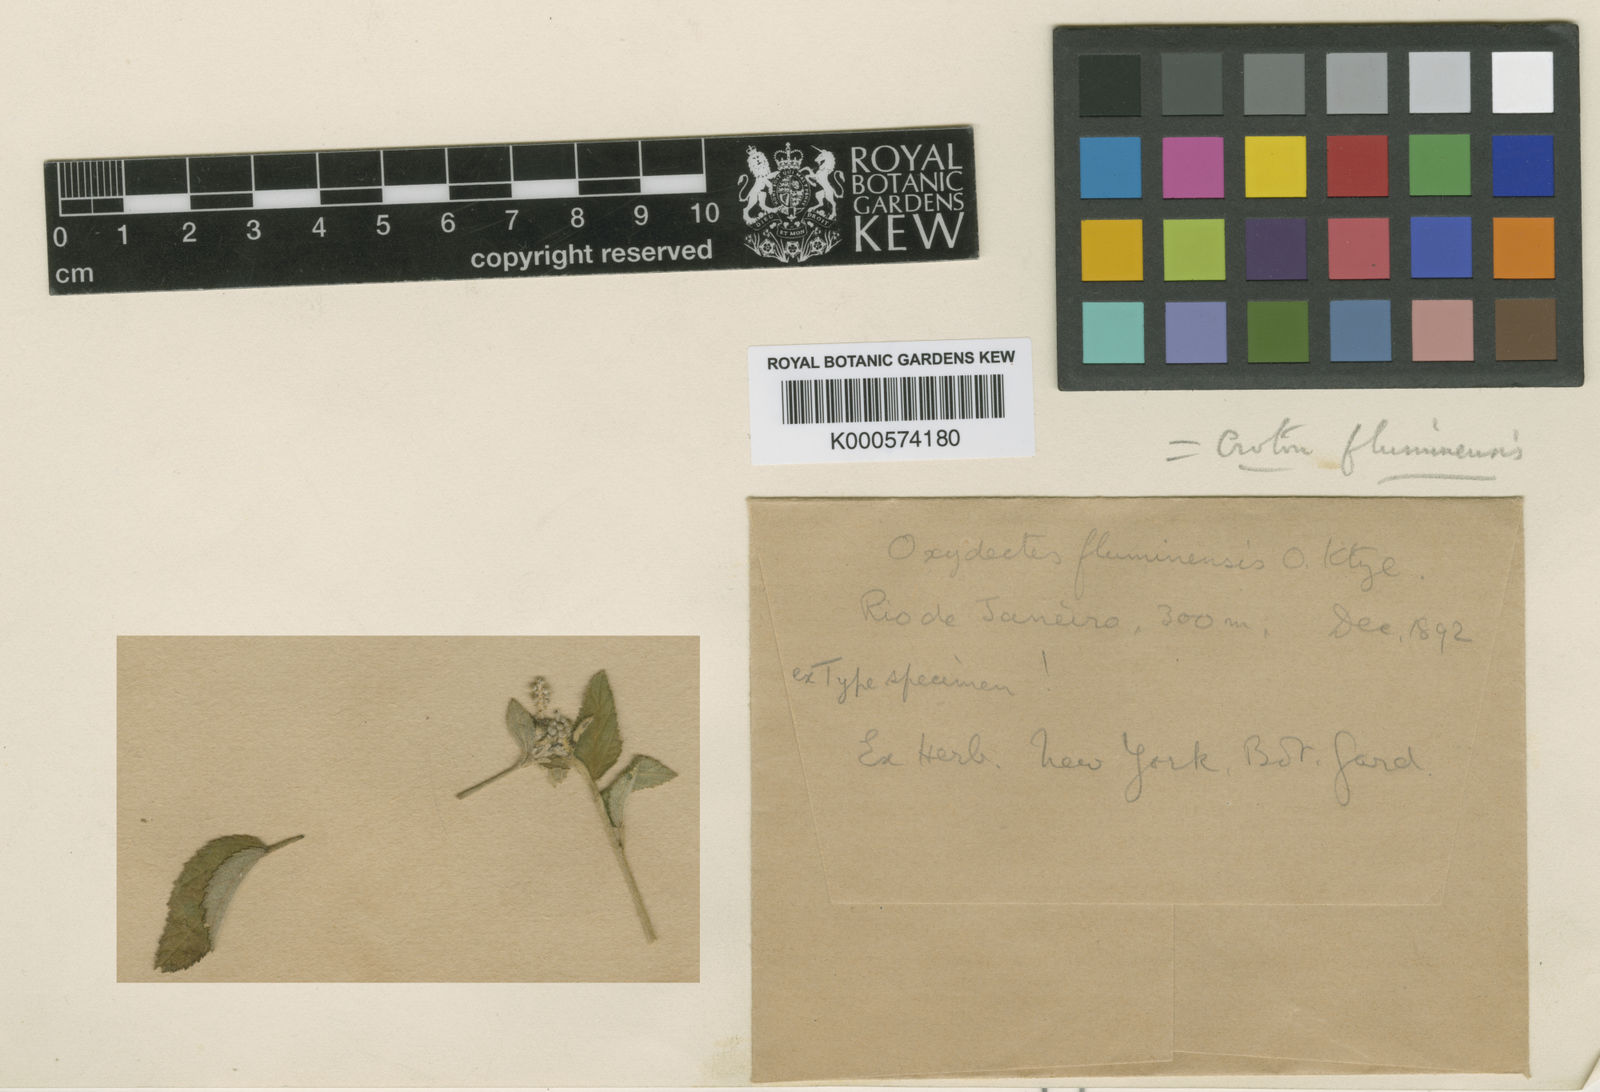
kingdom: Plantae
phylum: Tracheophyta
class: Magnoliopsida
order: Malpighiales
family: Euphorbiaceae
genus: Croton
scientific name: Croton adenodontus
